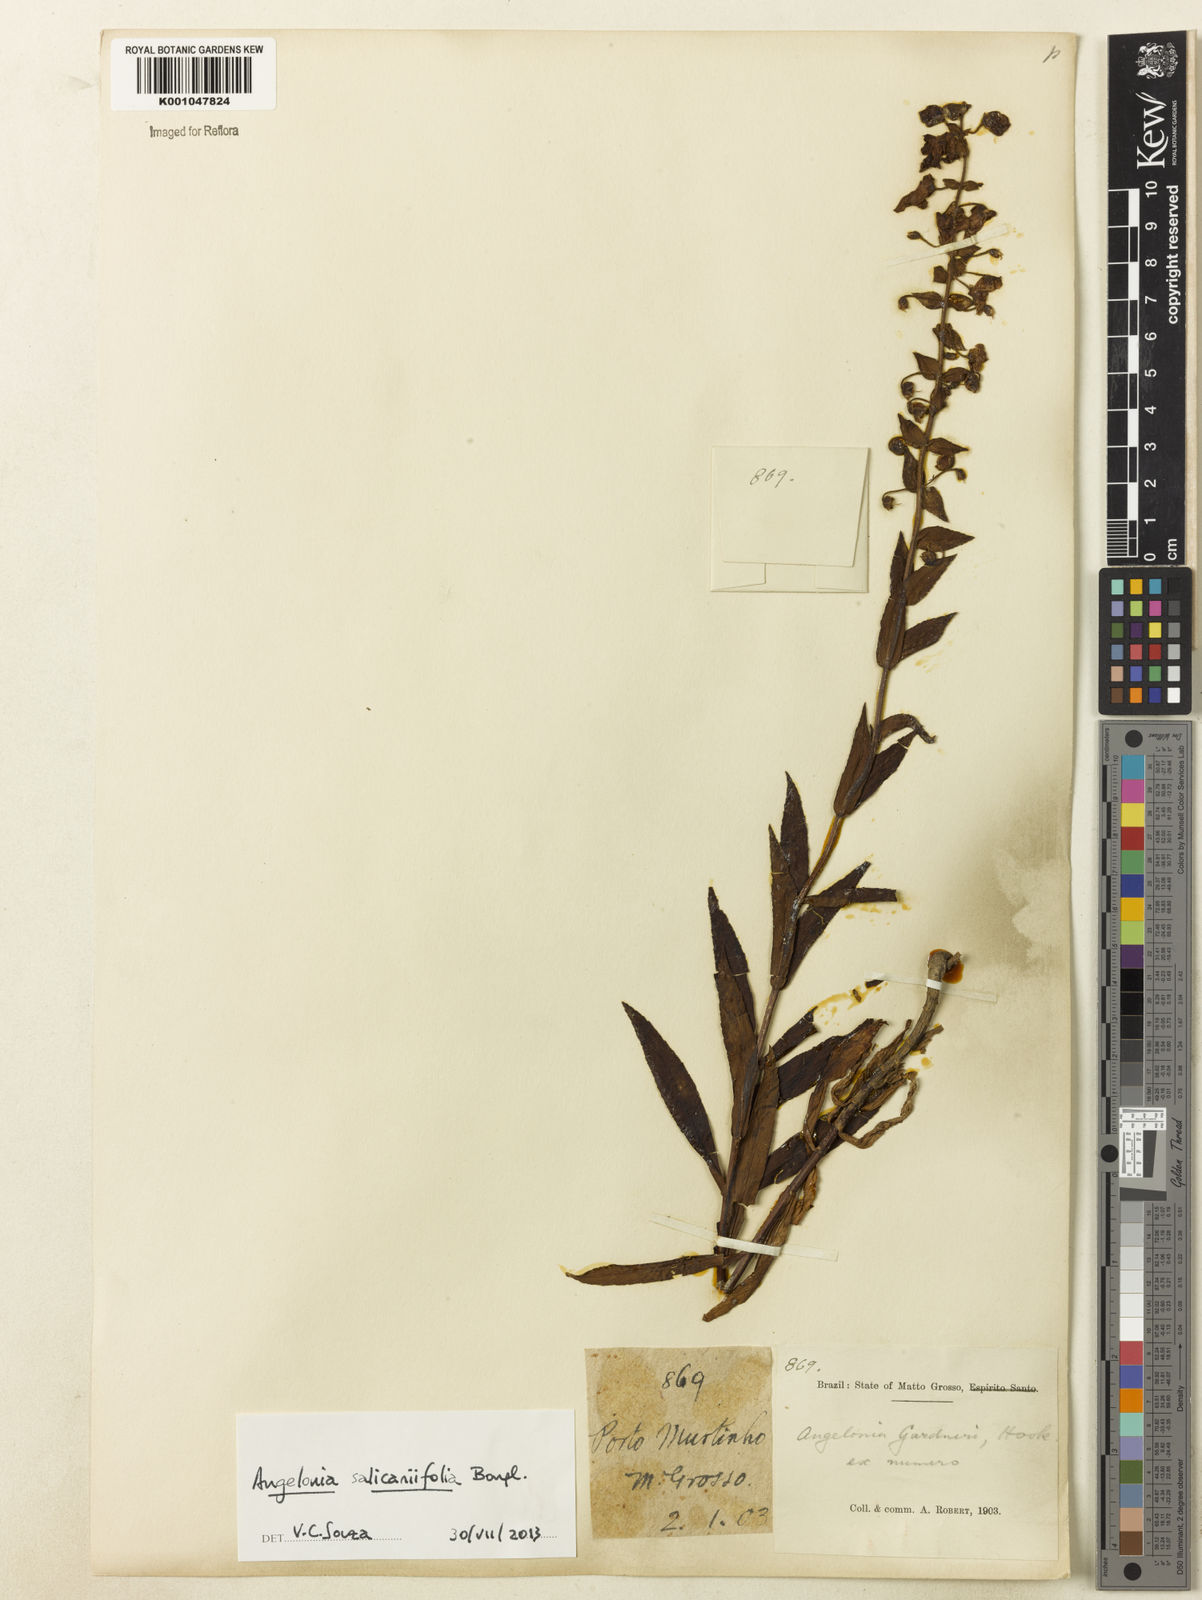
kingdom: Plantae
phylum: Tracheophyta
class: Magnoliopsida
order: Lamiales
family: Plantaginaceae
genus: Angelonia
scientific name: Angelonia salicariifolia
